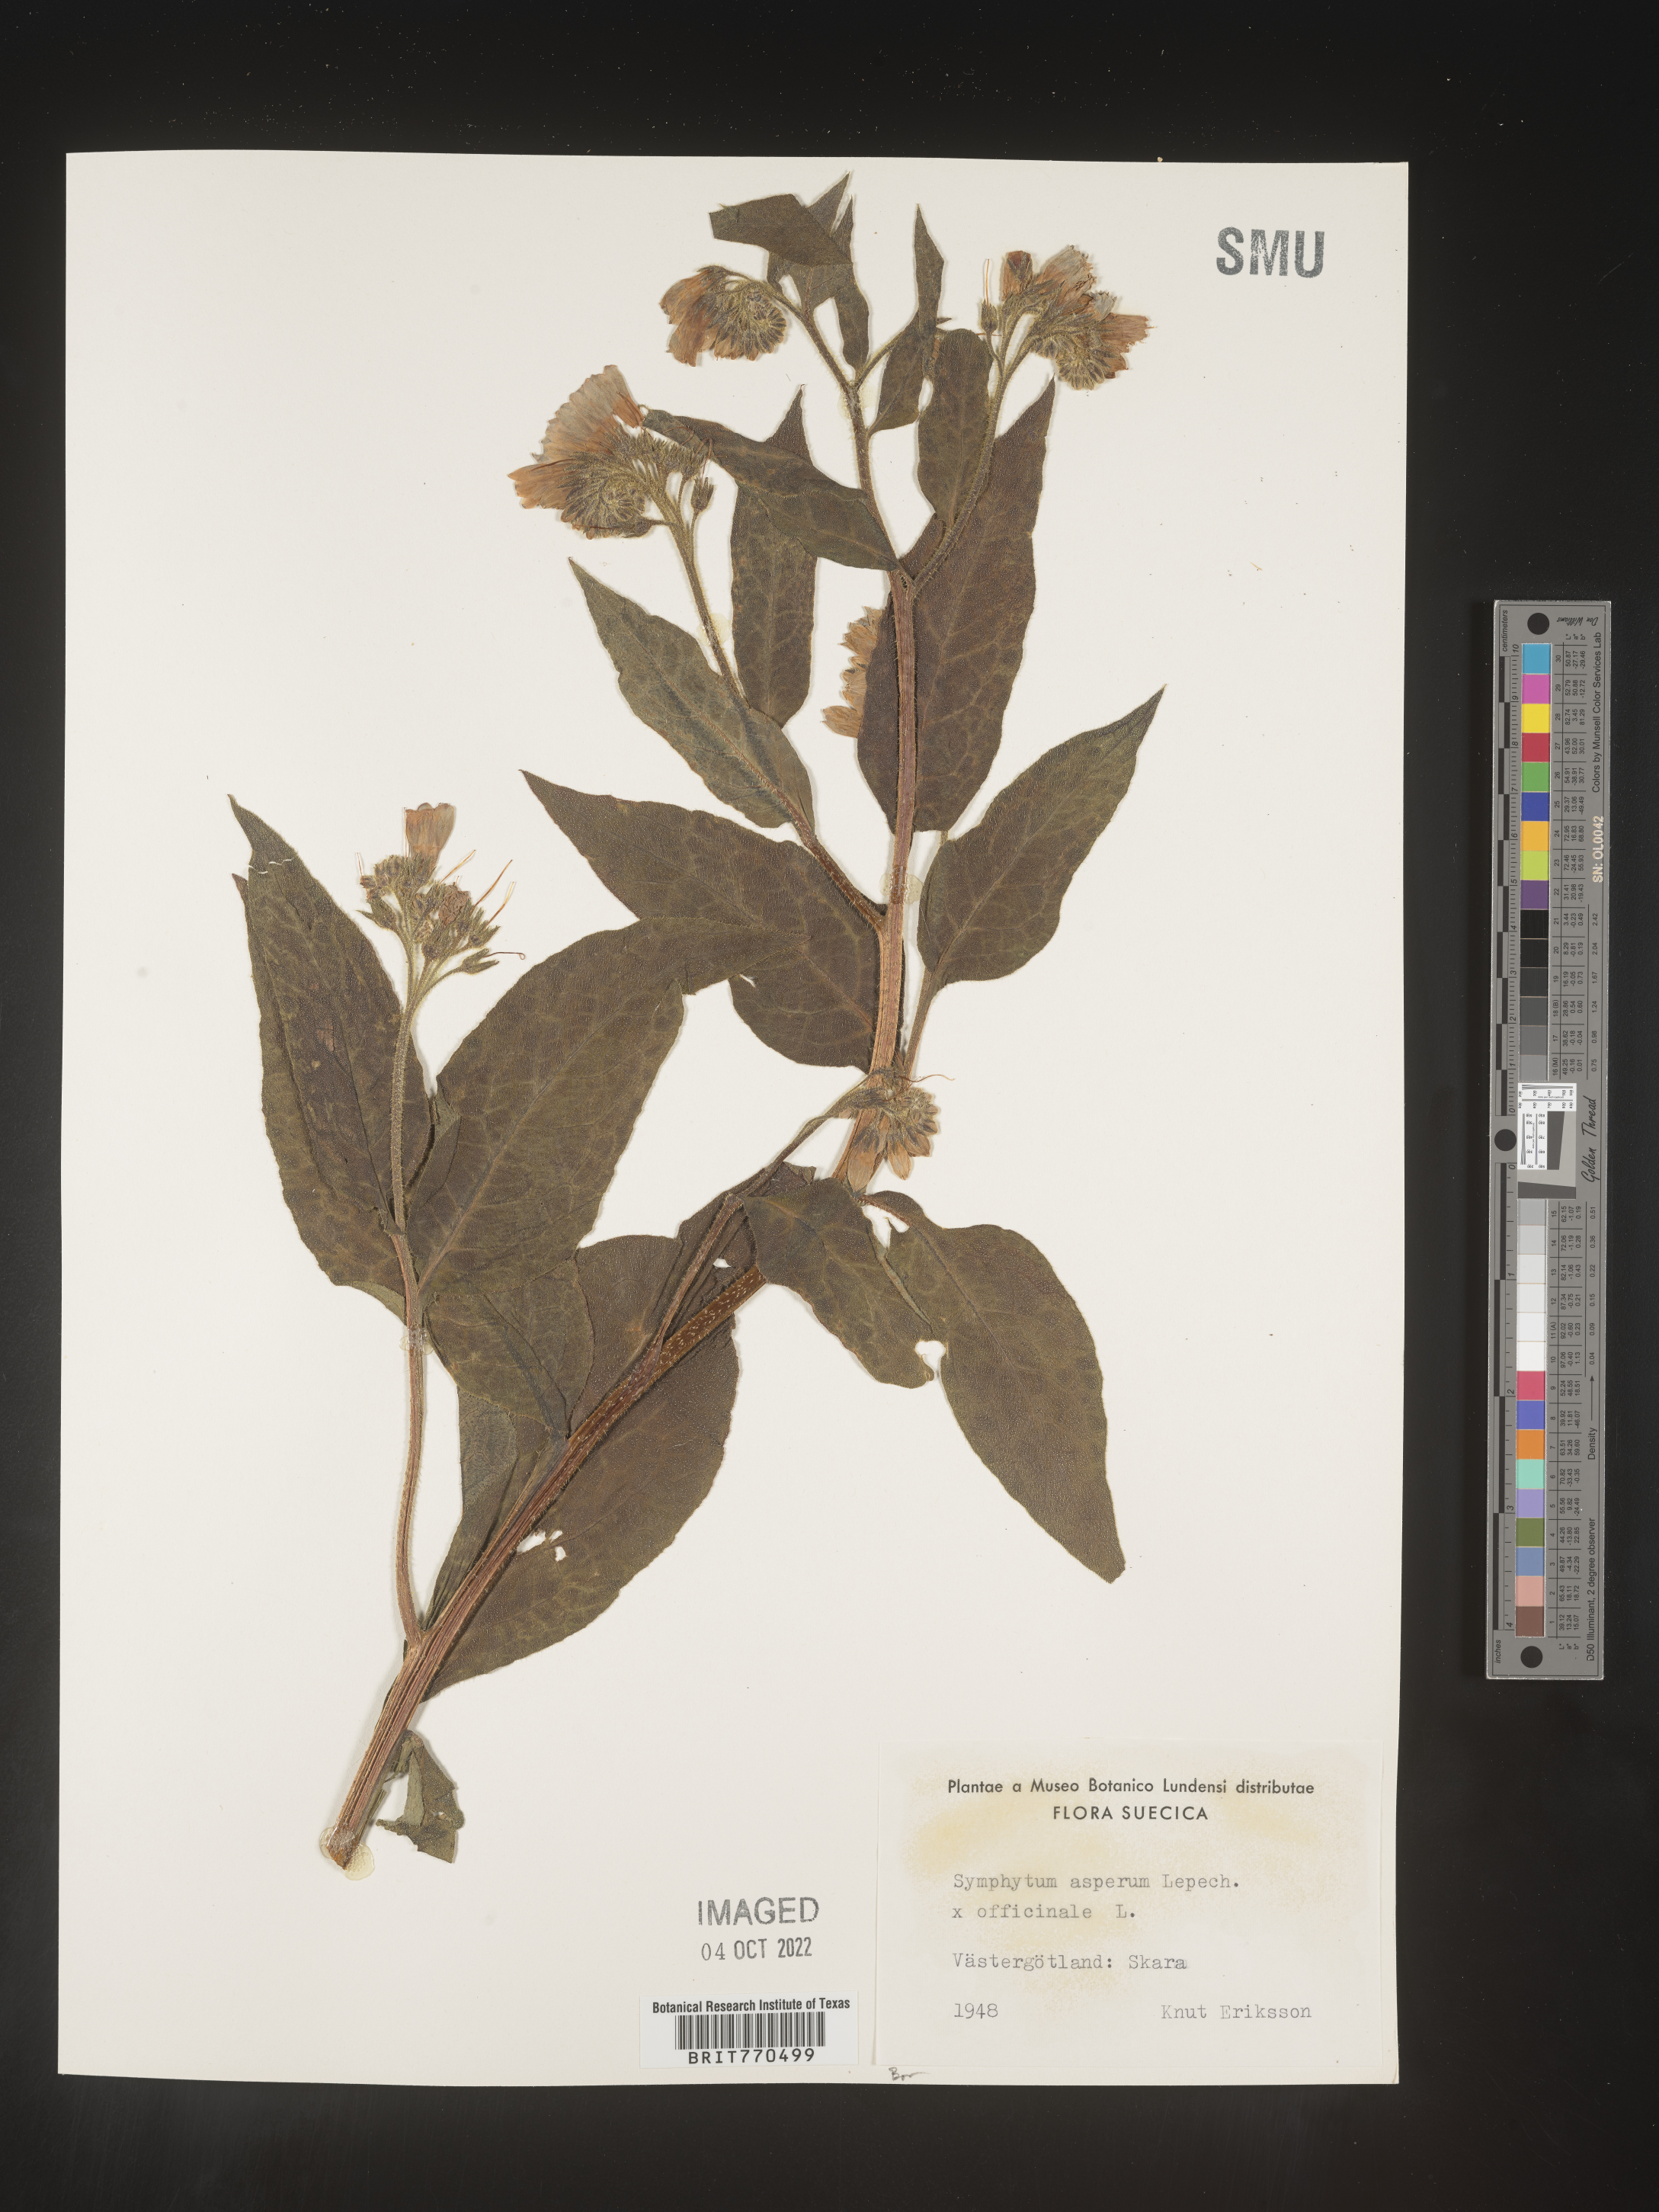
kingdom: Plantae
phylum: Tracheophyta
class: Magnoliopsida
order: Boraginales
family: Boraginaceae
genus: Symphytum
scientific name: Symphytum
